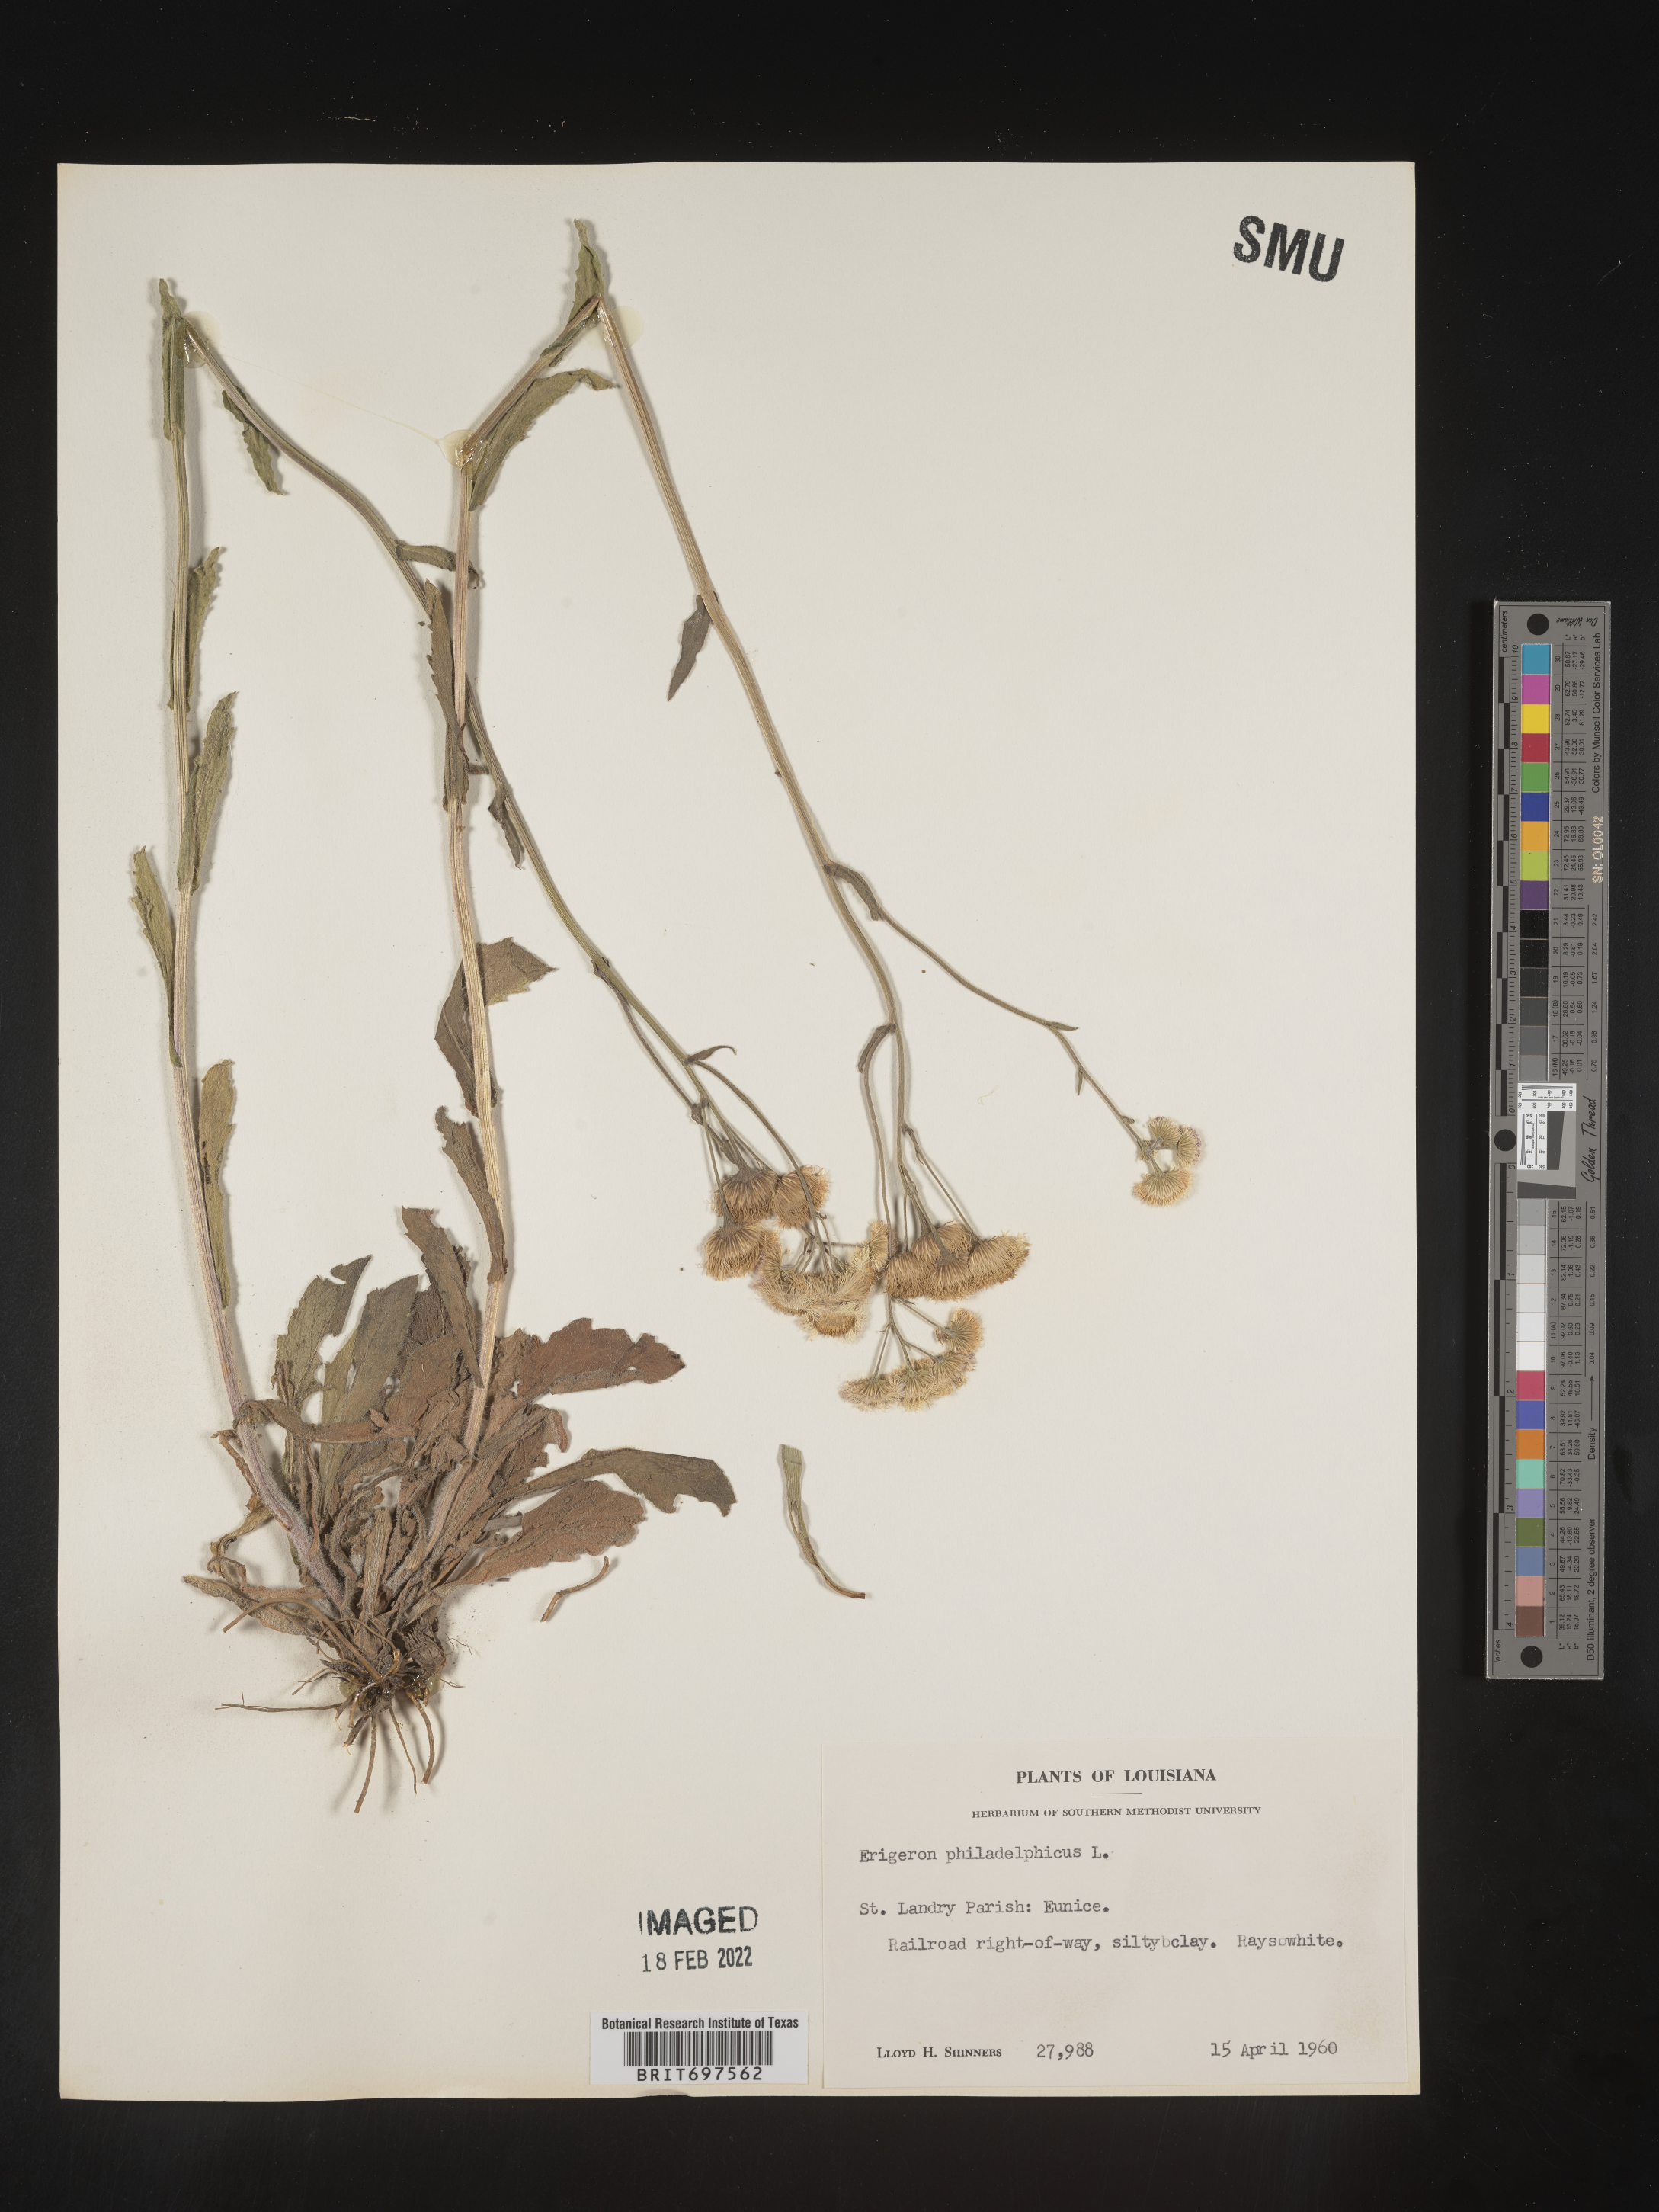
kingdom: Plantae
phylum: Tracheophyta
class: Magnoliopsida
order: Asterales
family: Asteraceae
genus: Erigeron
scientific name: Erigeron philadelphicus
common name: Robin's-plantain
